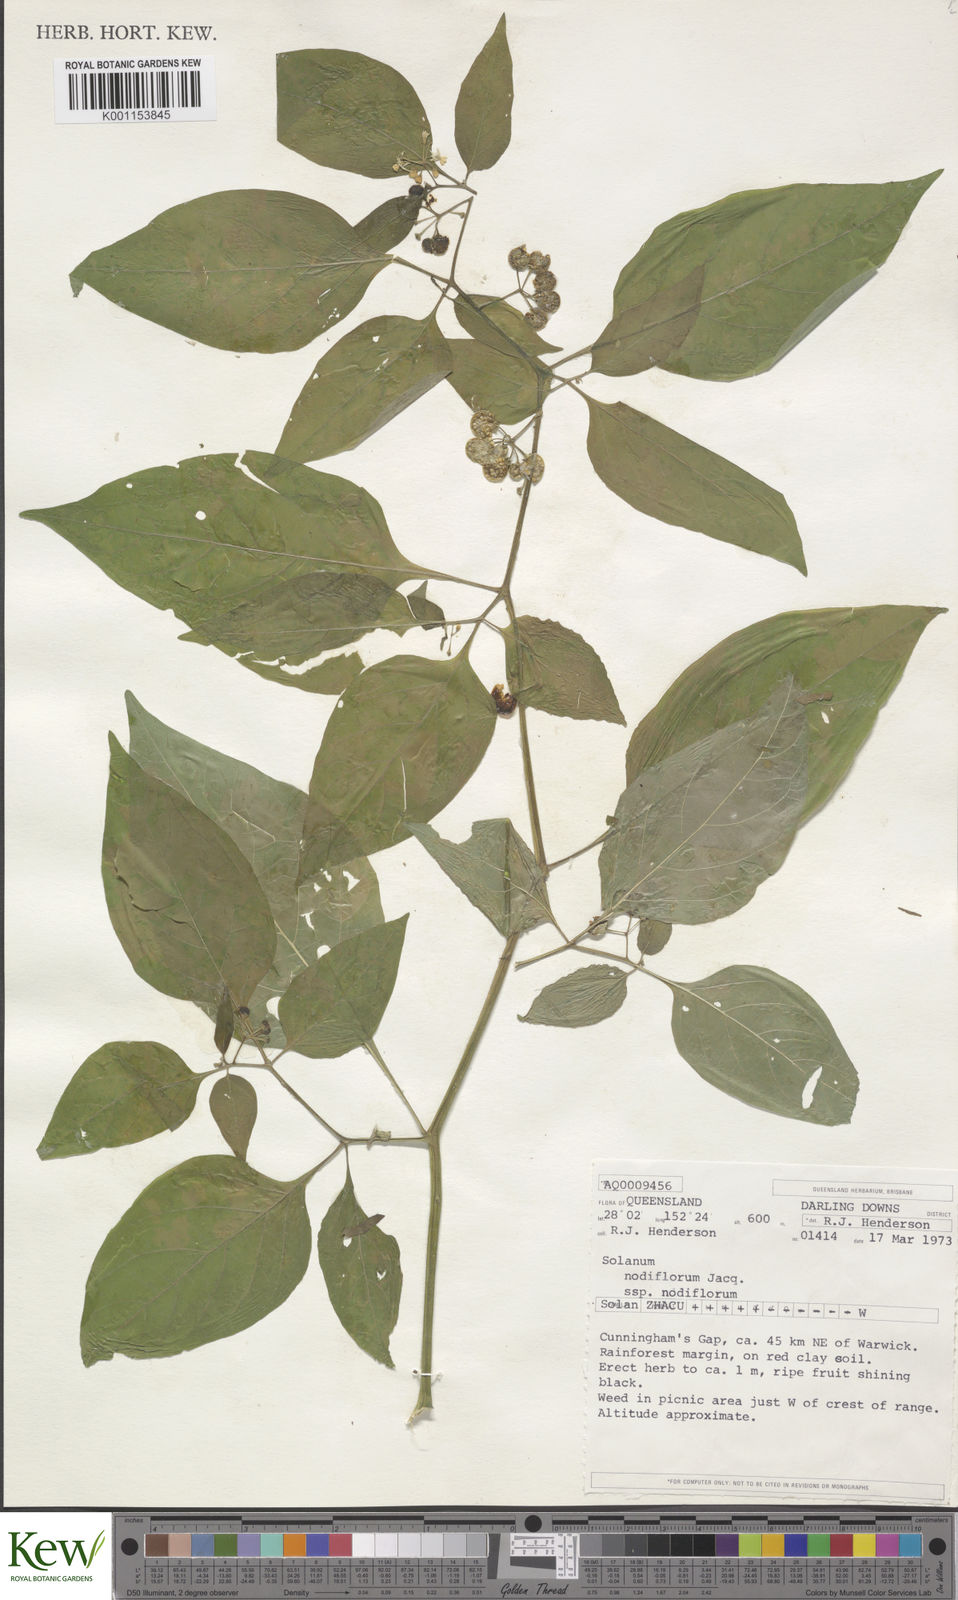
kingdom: Plantae
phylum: Tracheophyta
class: Magnoliopsida
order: Solanales
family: Solanaceae
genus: Solanum
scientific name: Solanum americanum
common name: American black nightshade
